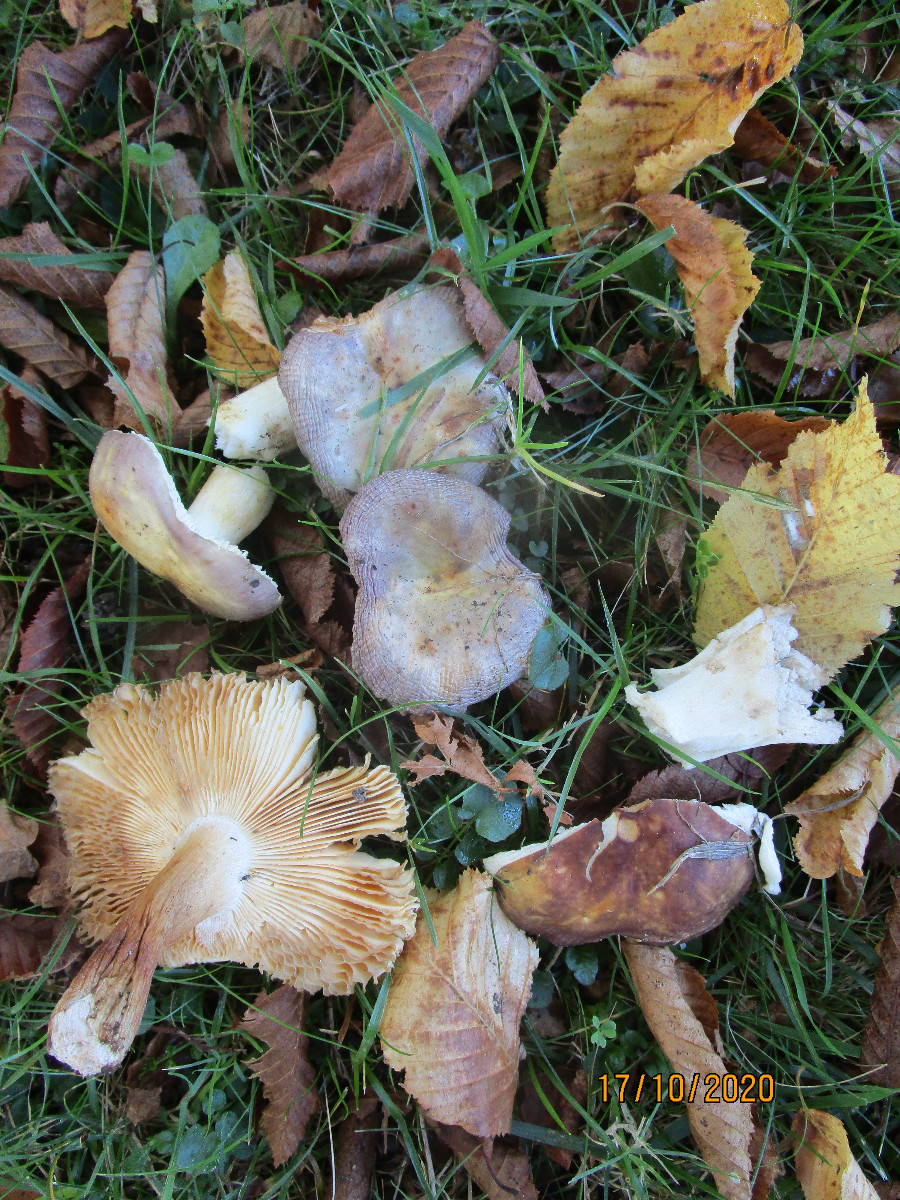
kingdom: Fungi
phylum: Basidiomycota
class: Agaricomycetes
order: Russulales
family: Russulaceae
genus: Russula
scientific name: Russula carpini
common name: avnbøg-skørhat
